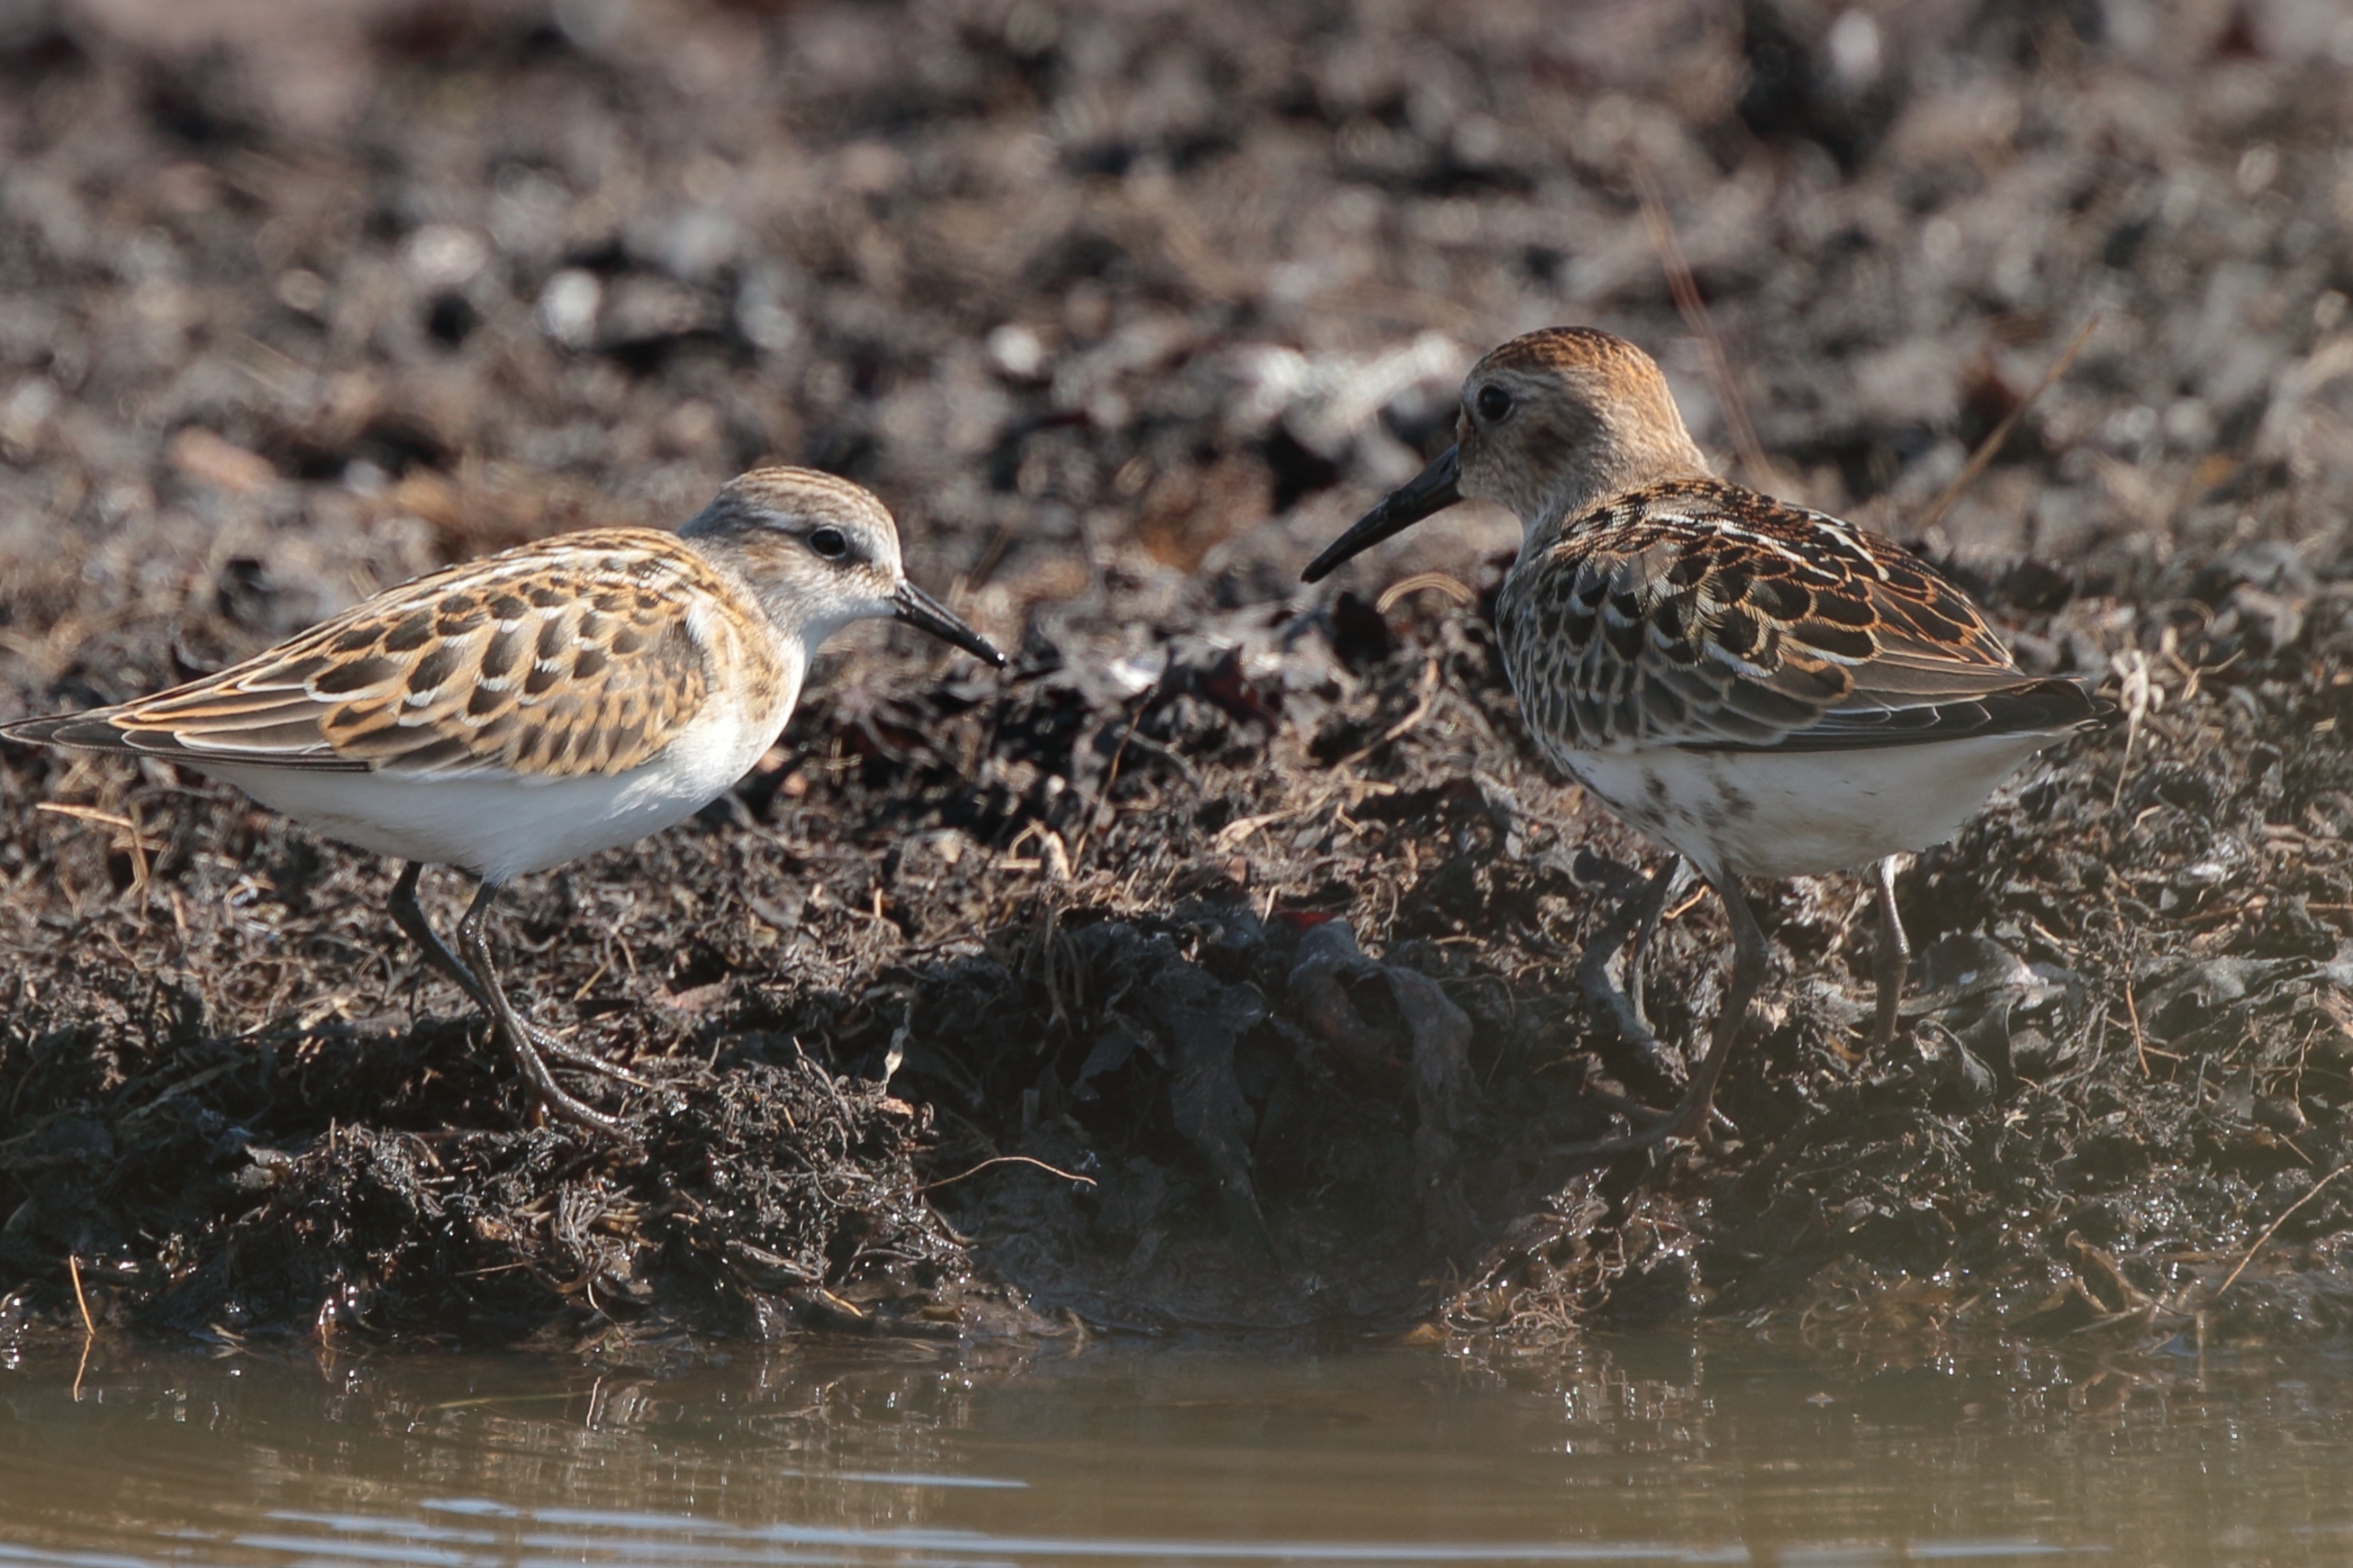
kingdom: Animalia
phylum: Chordata
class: Aves
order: Charadriiformes
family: Scolopacidae
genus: Calidris
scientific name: Calidris minuta
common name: Dværgryle
